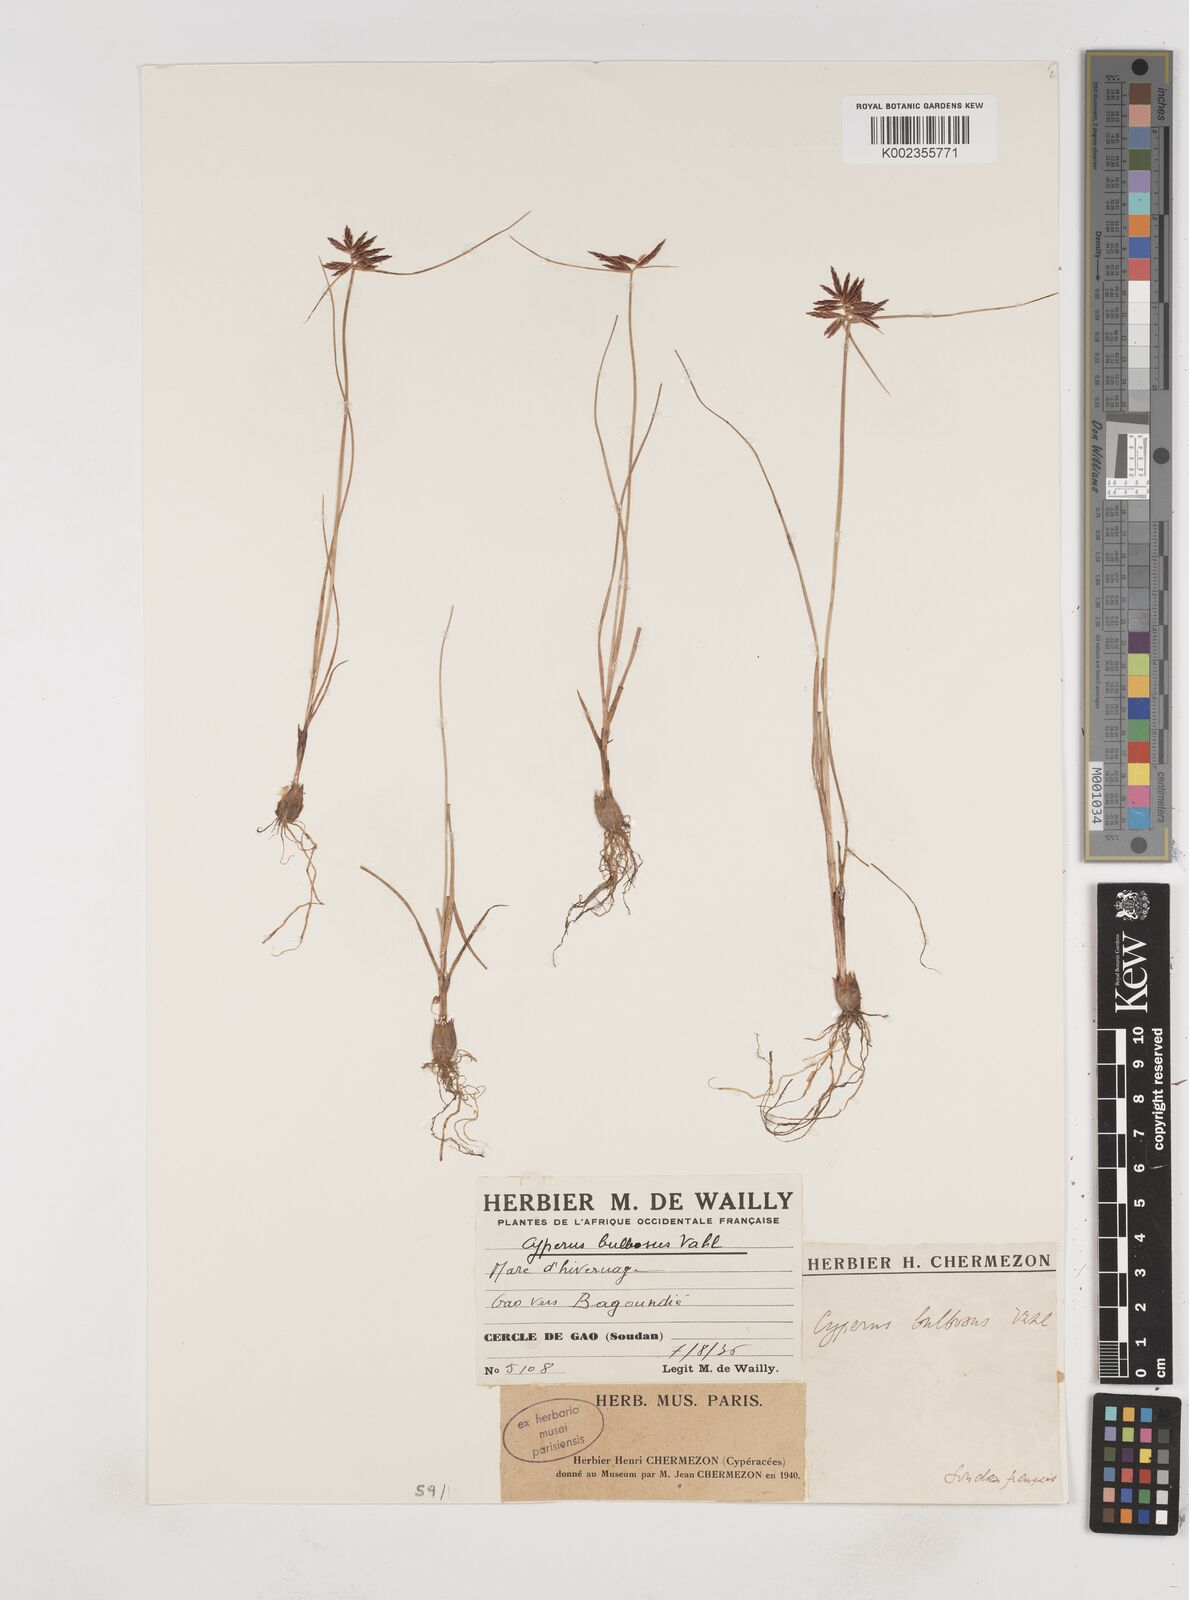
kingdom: Plantae
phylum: Tracheophyta
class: Liliopsida
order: Poales
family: Cyperaceae
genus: Cyperus
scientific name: Cyperus bulbosus
